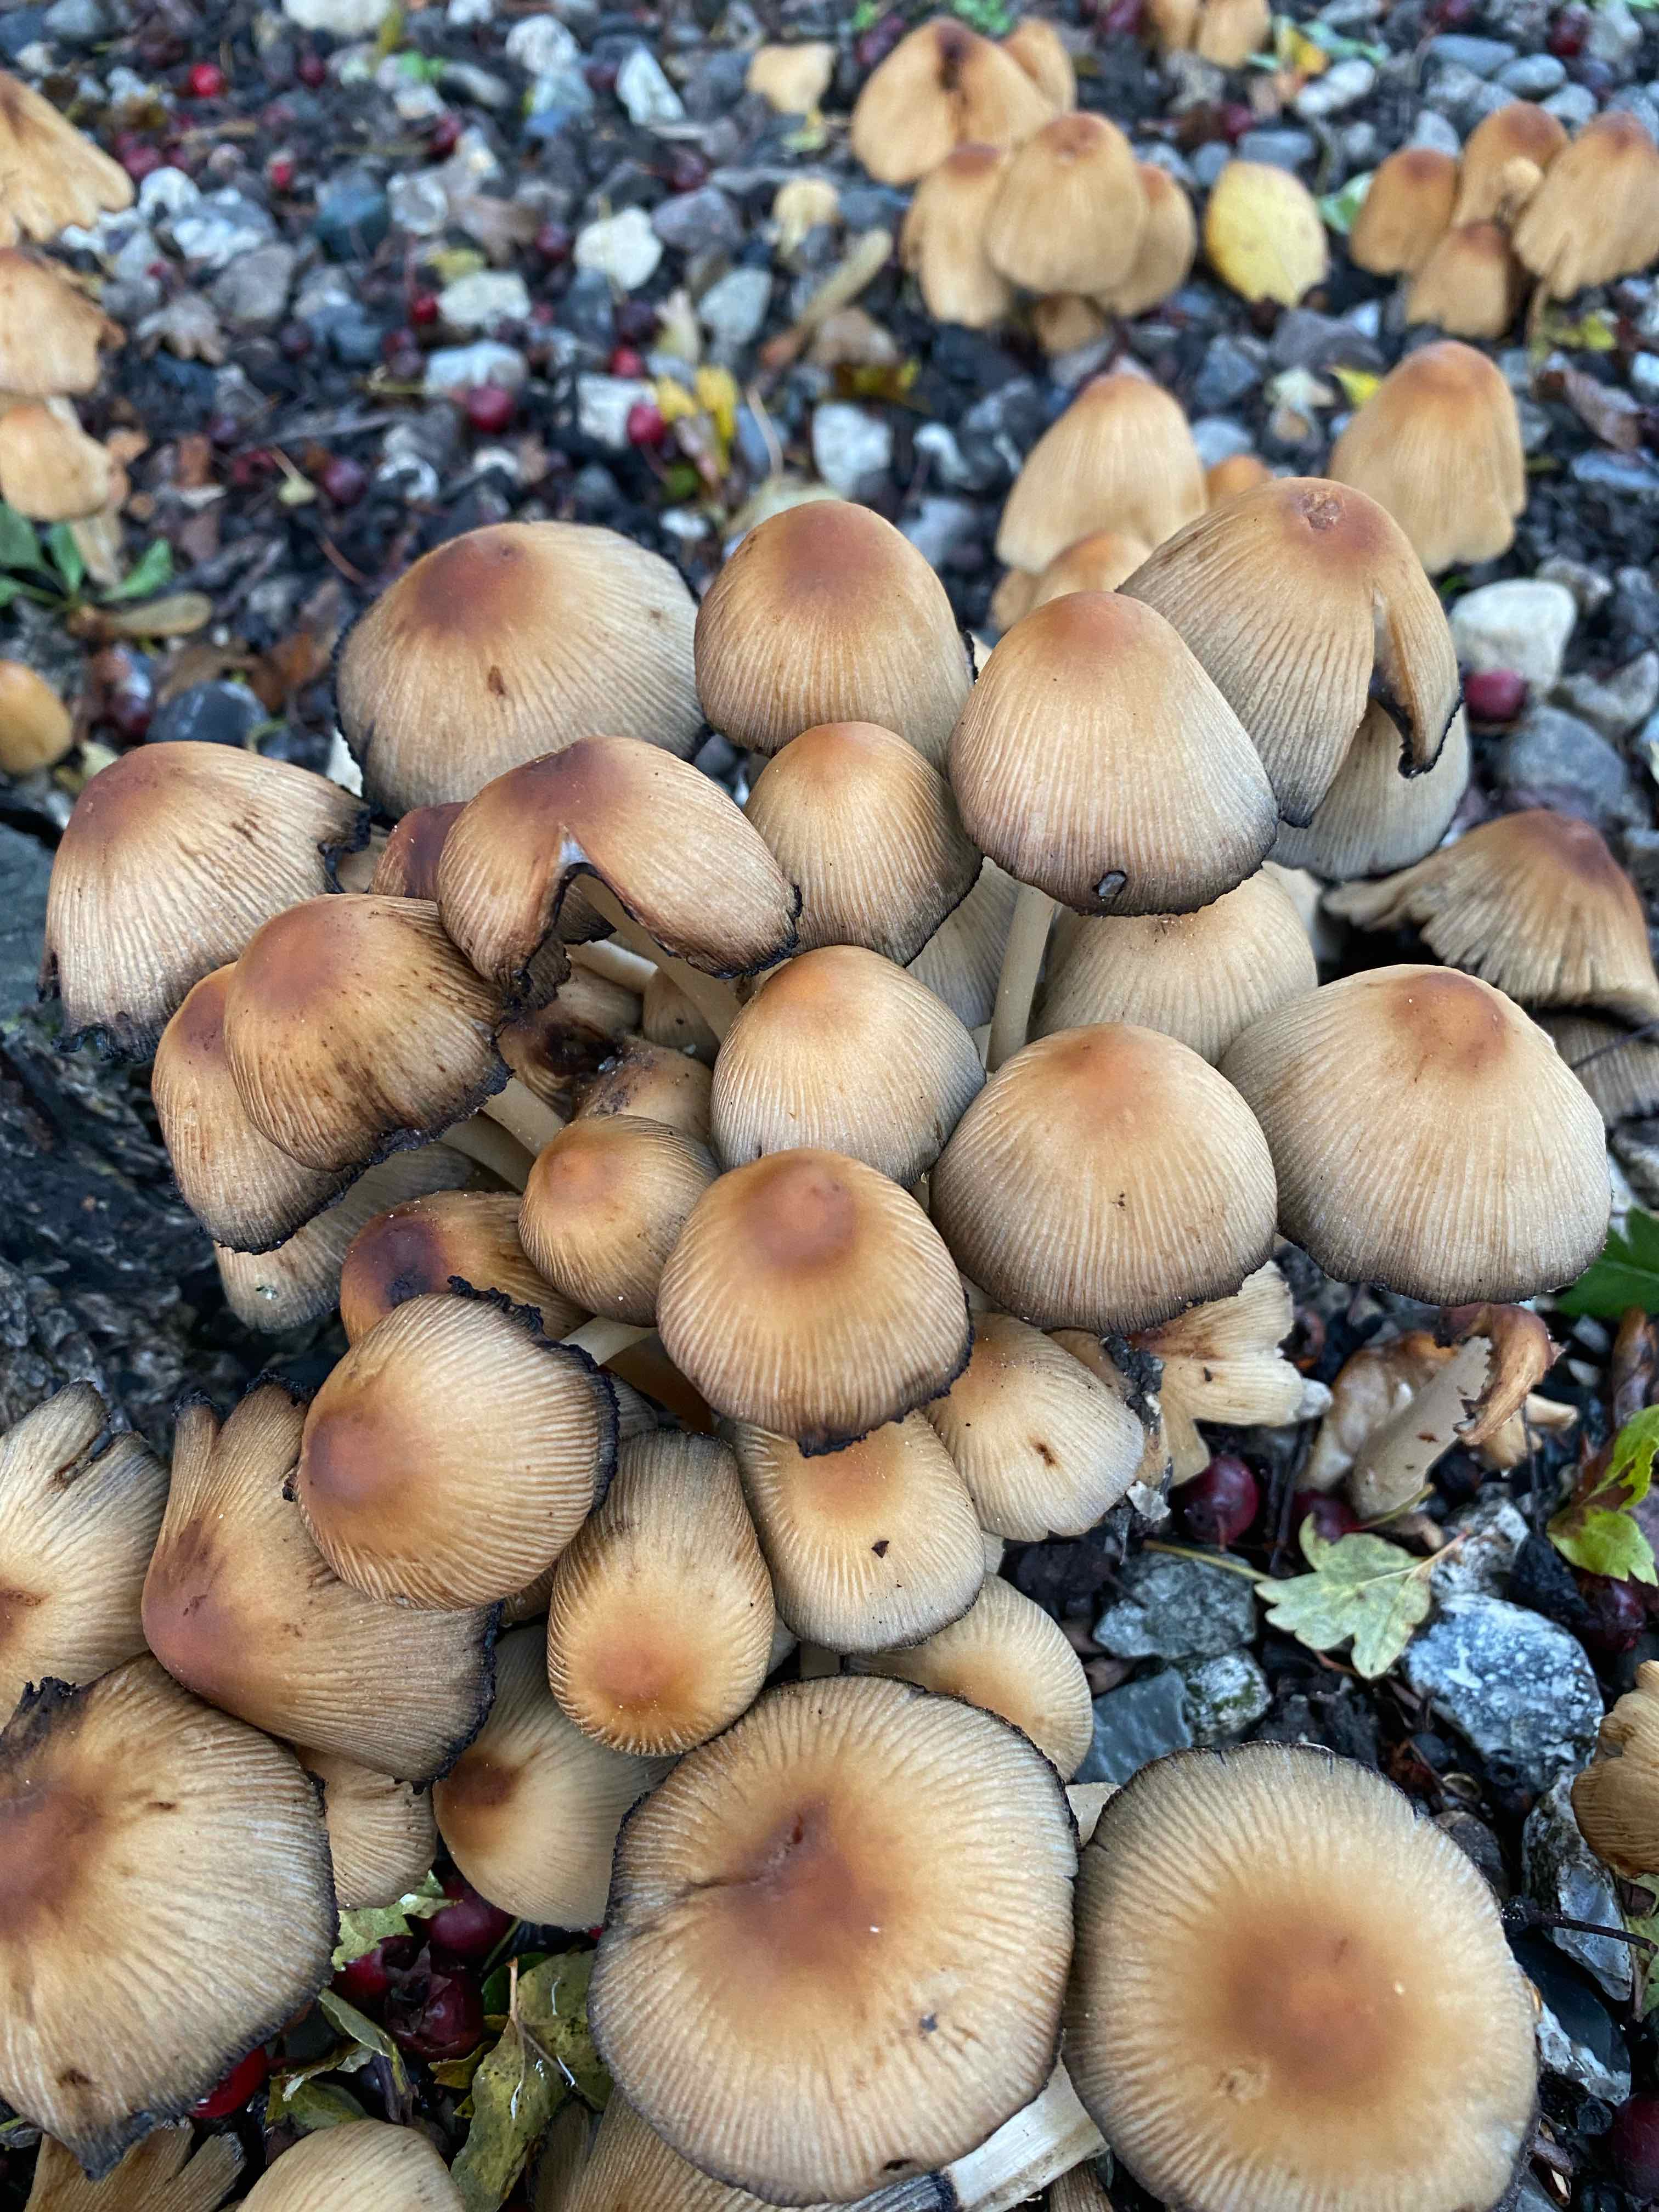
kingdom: Fungi
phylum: Basidiomycota
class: Agaricomycetes
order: Agaricales
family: Psathyrellaceae
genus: Coprinellus
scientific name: Coprinellus micaceus
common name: glimmer-blækhat
